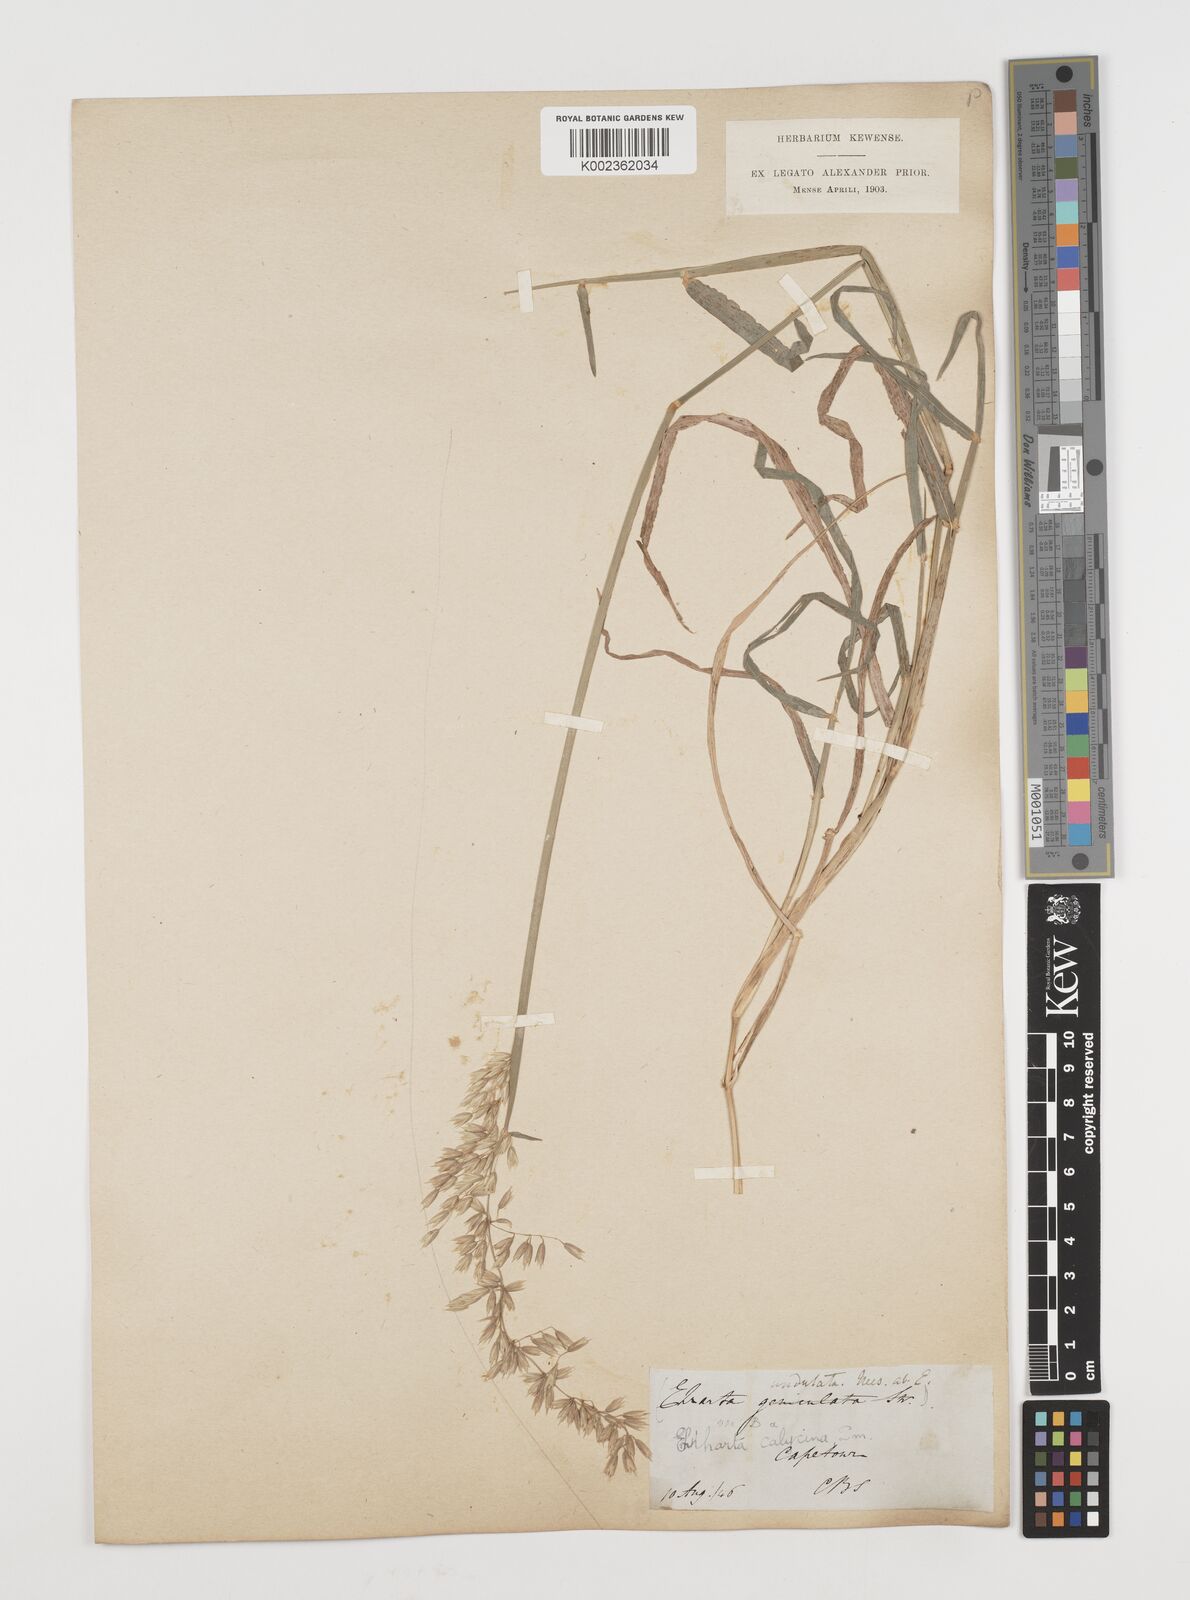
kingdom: Plantae
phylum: Tracheophyta
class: Liliopsida
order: Poales
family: Poaceae
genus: Ehrharta
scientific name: Ehrharta calycina
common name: Perennial veldtgrass
